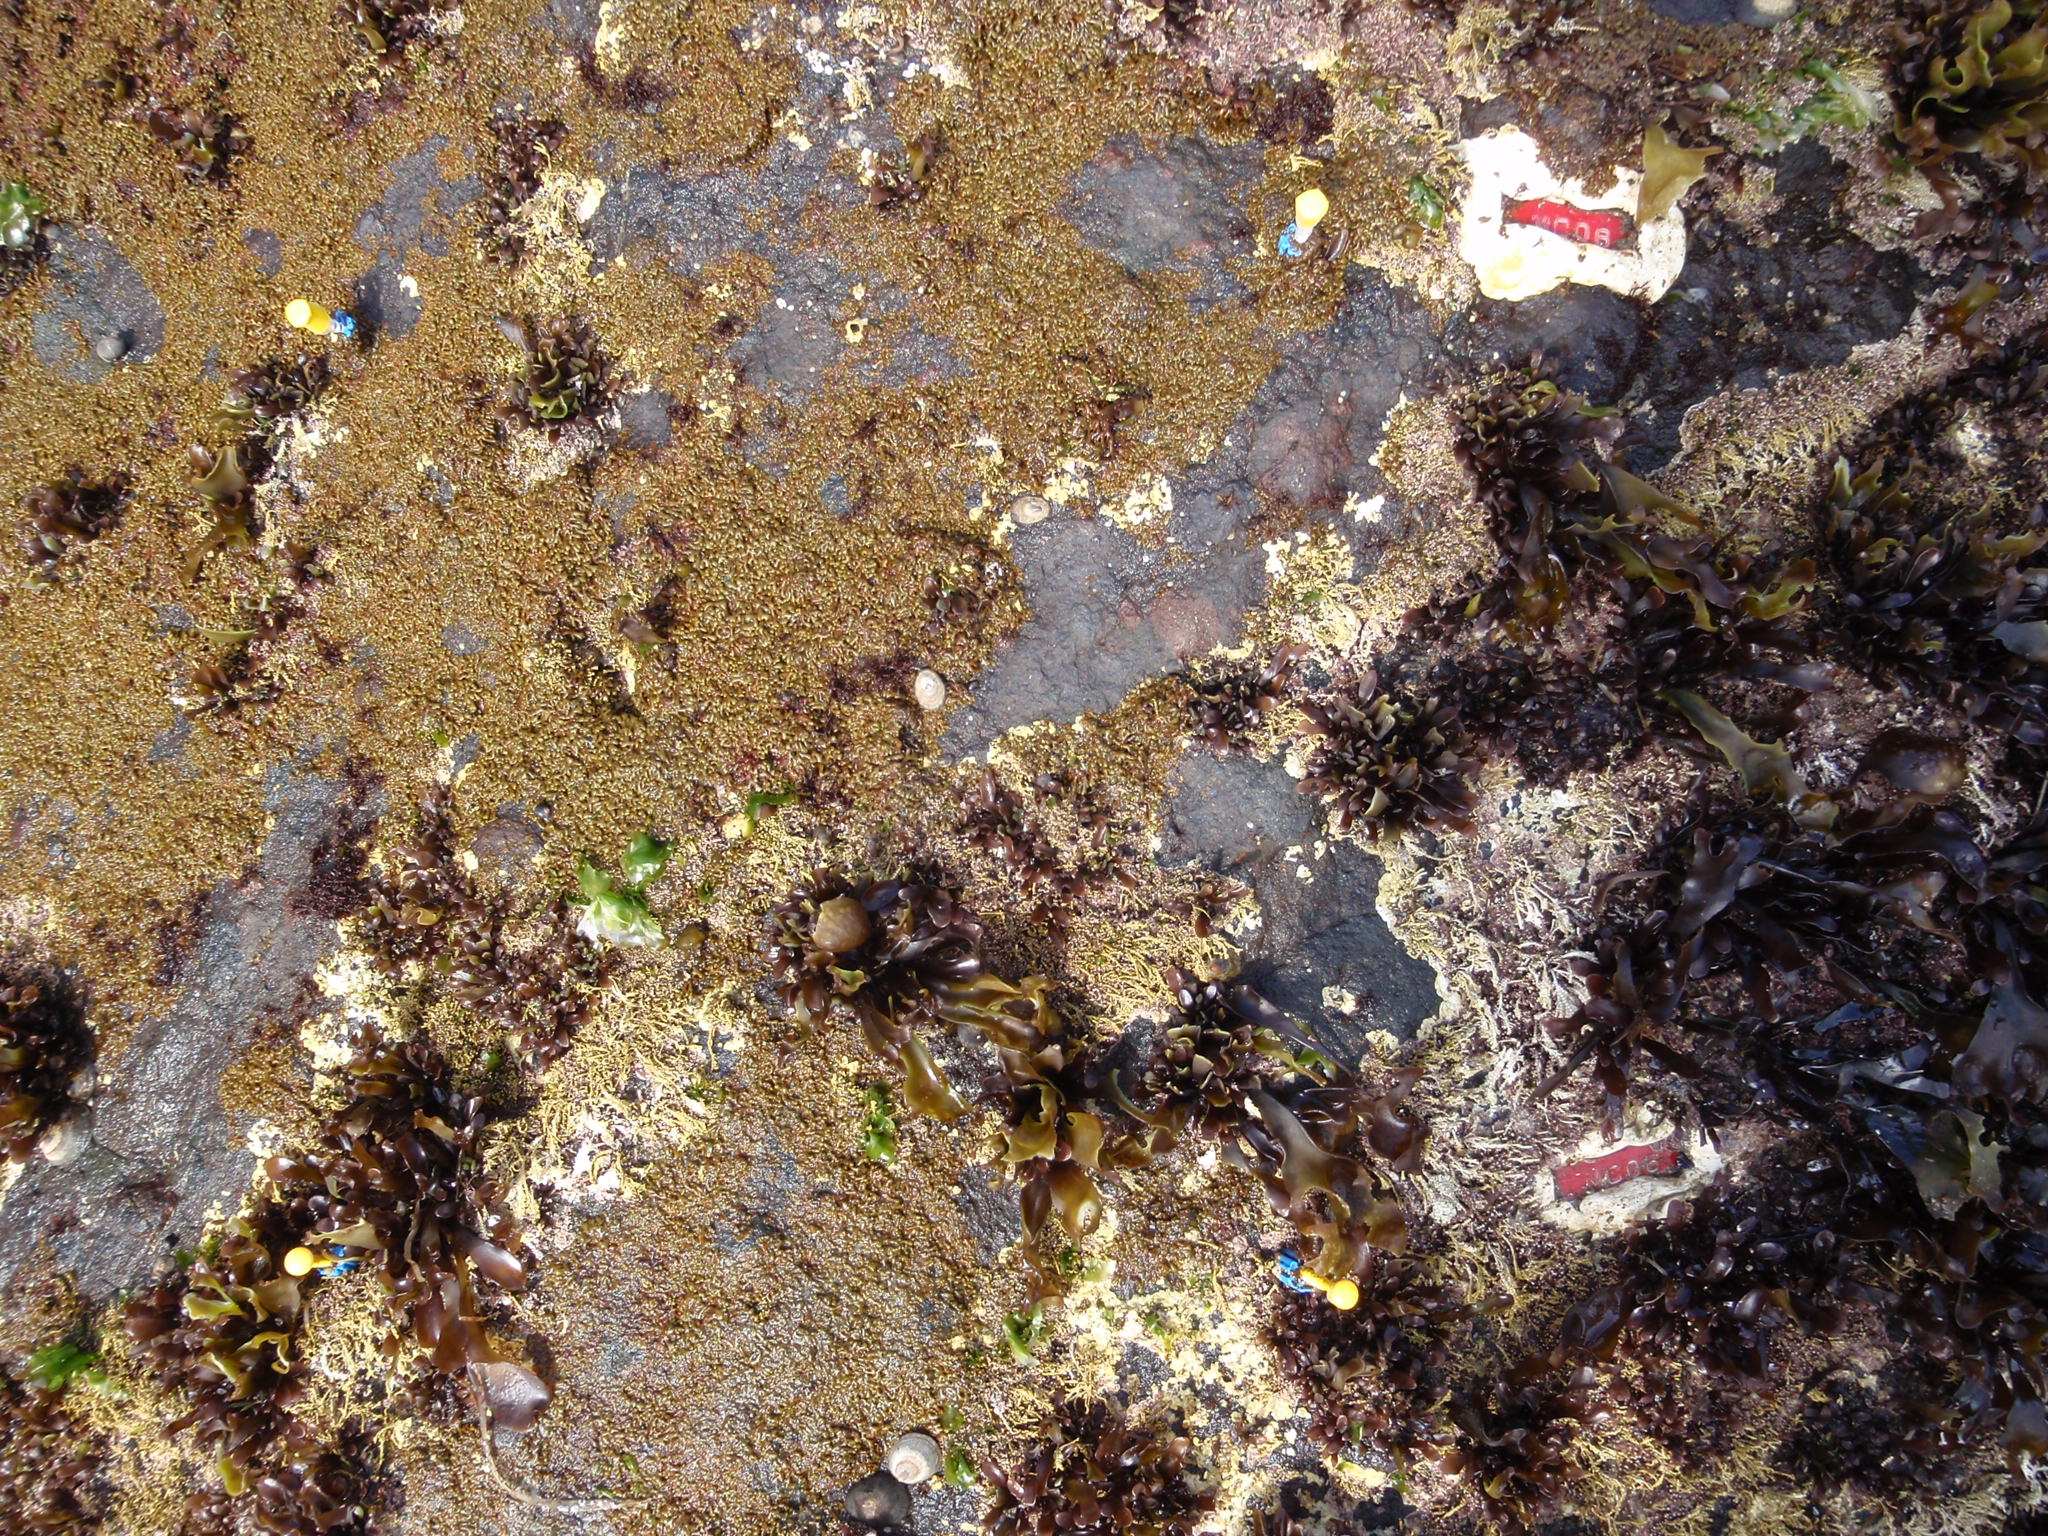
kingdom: Plantae
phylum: Rhodophyta
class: Florideophyceae
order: Gigartinales
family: Endocladiaceae
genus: Gloiopeltis
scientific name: Gloiopeltis furcata
